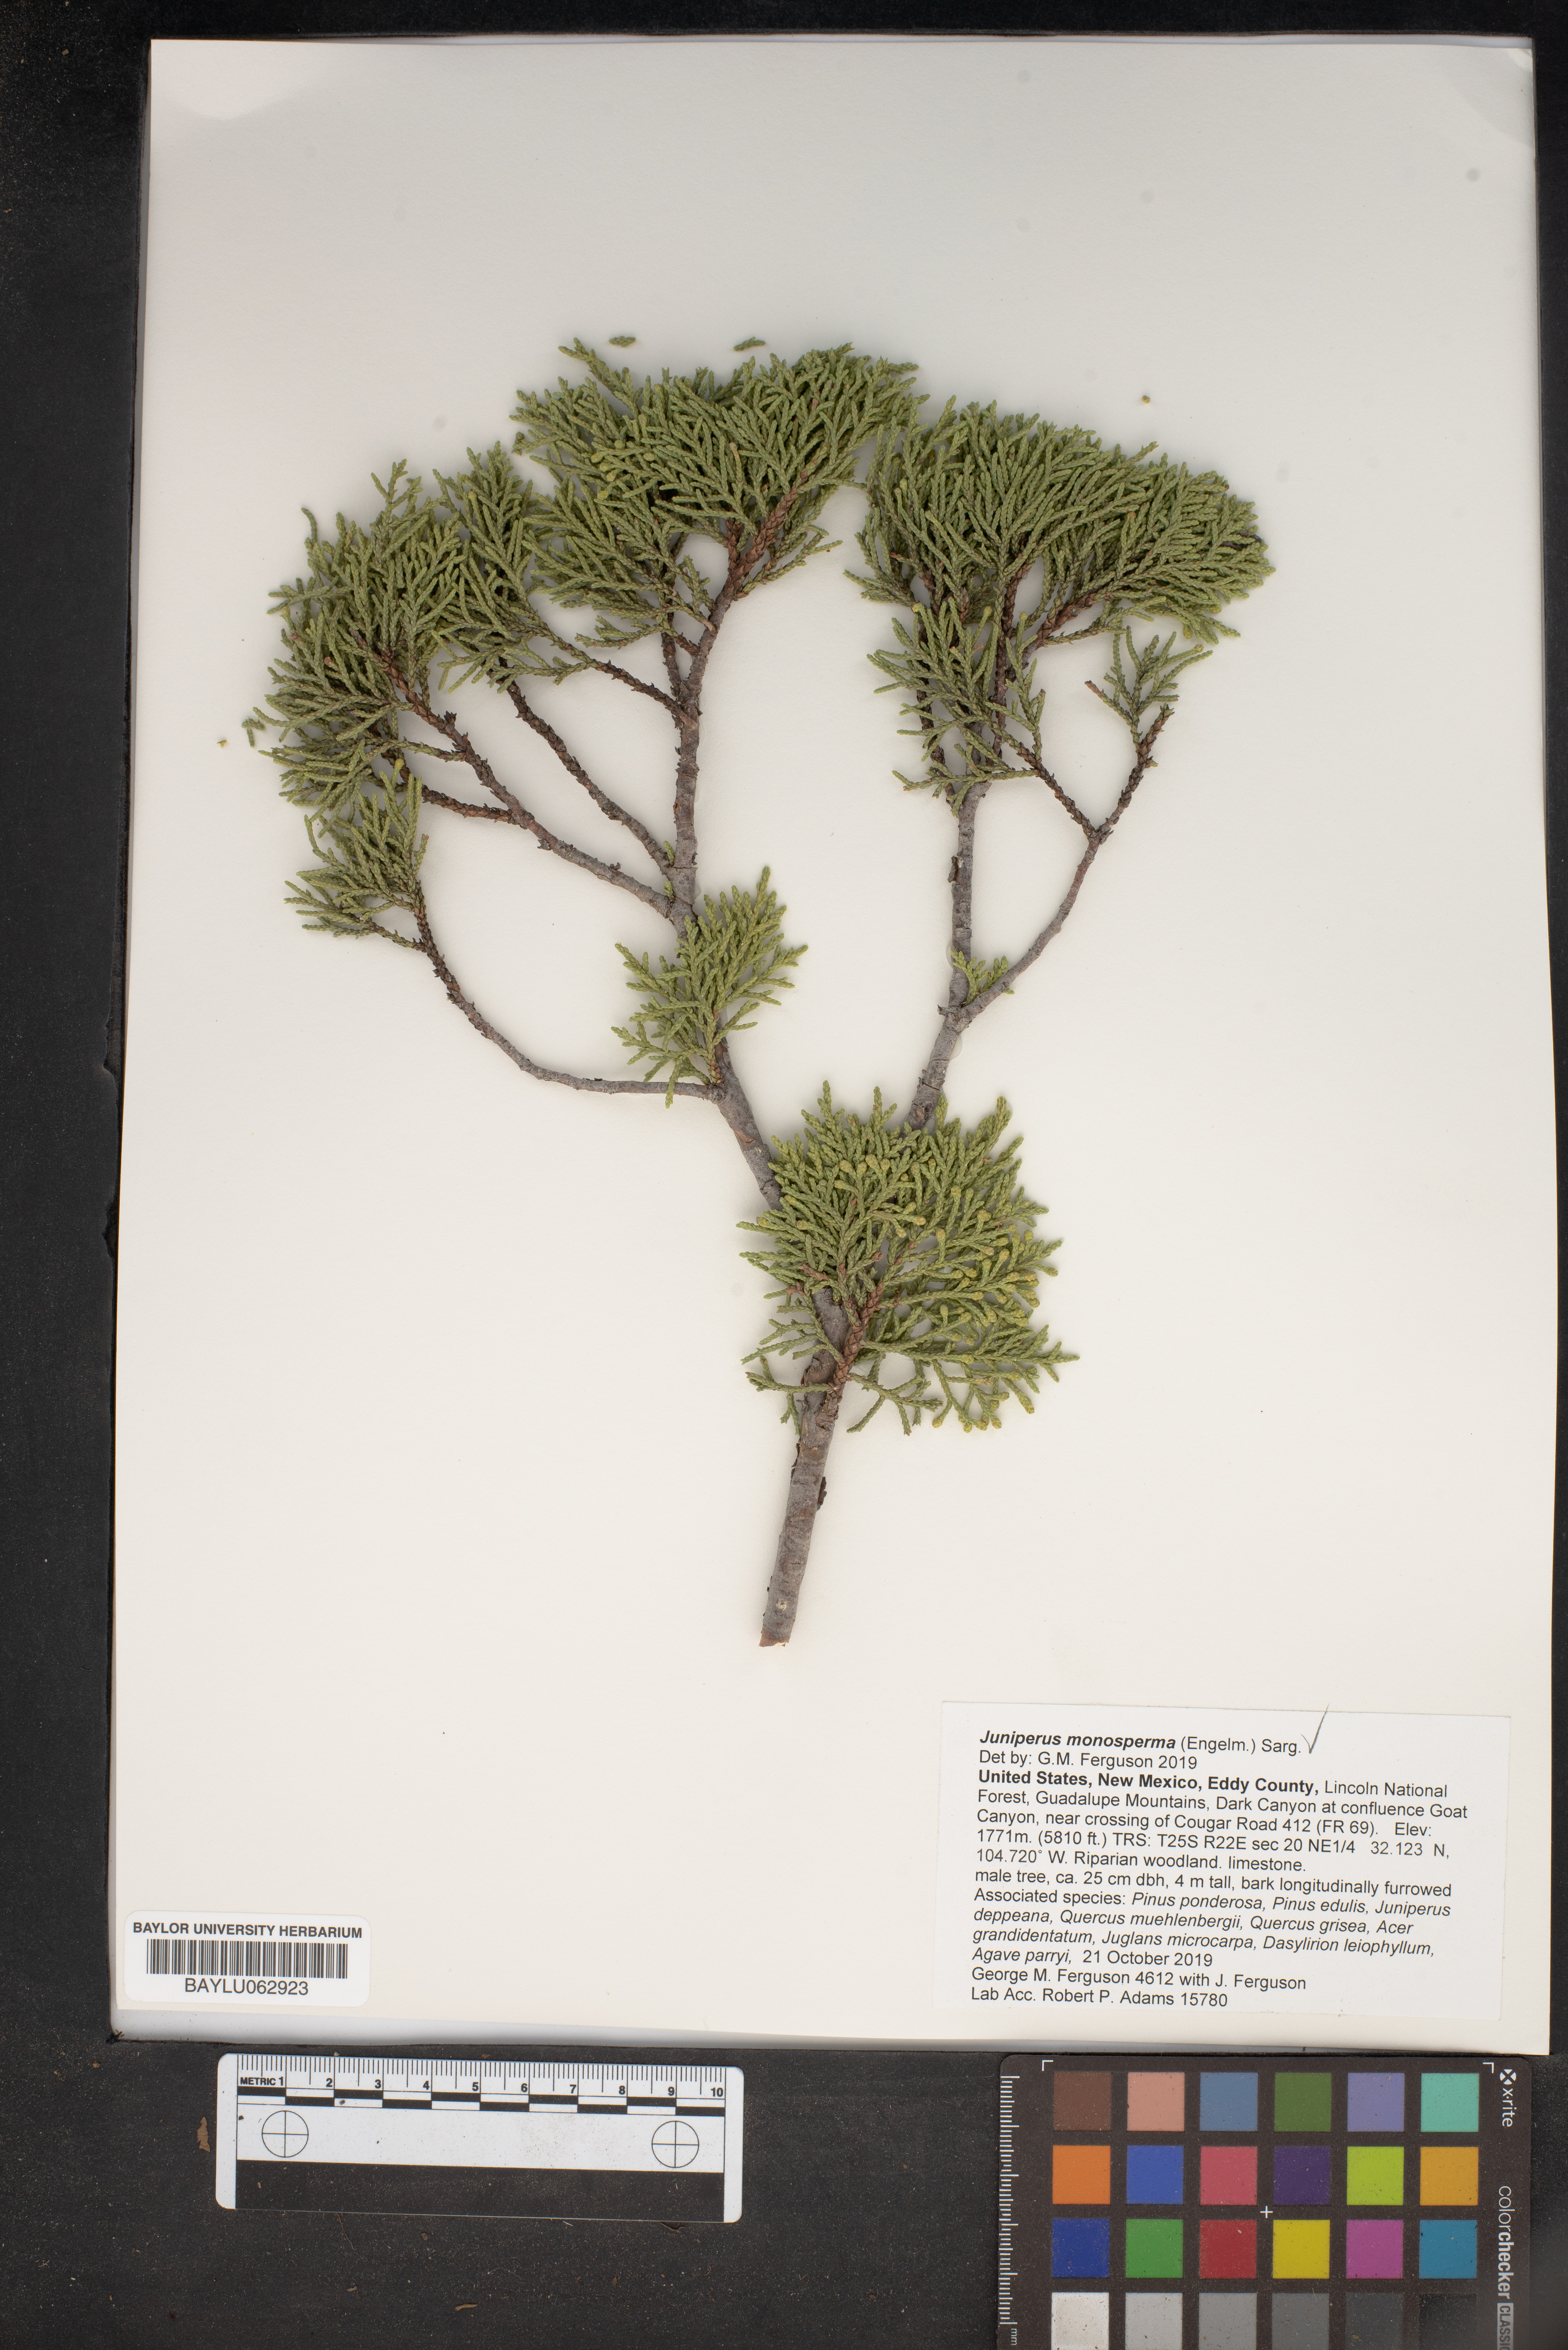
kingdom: Plantae
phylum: Tracheophyta
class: Pinopsida
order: Pinales
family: Cupressaceae
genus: Juniperus
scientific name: Juniperus monosperma
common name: One-seed juniper
